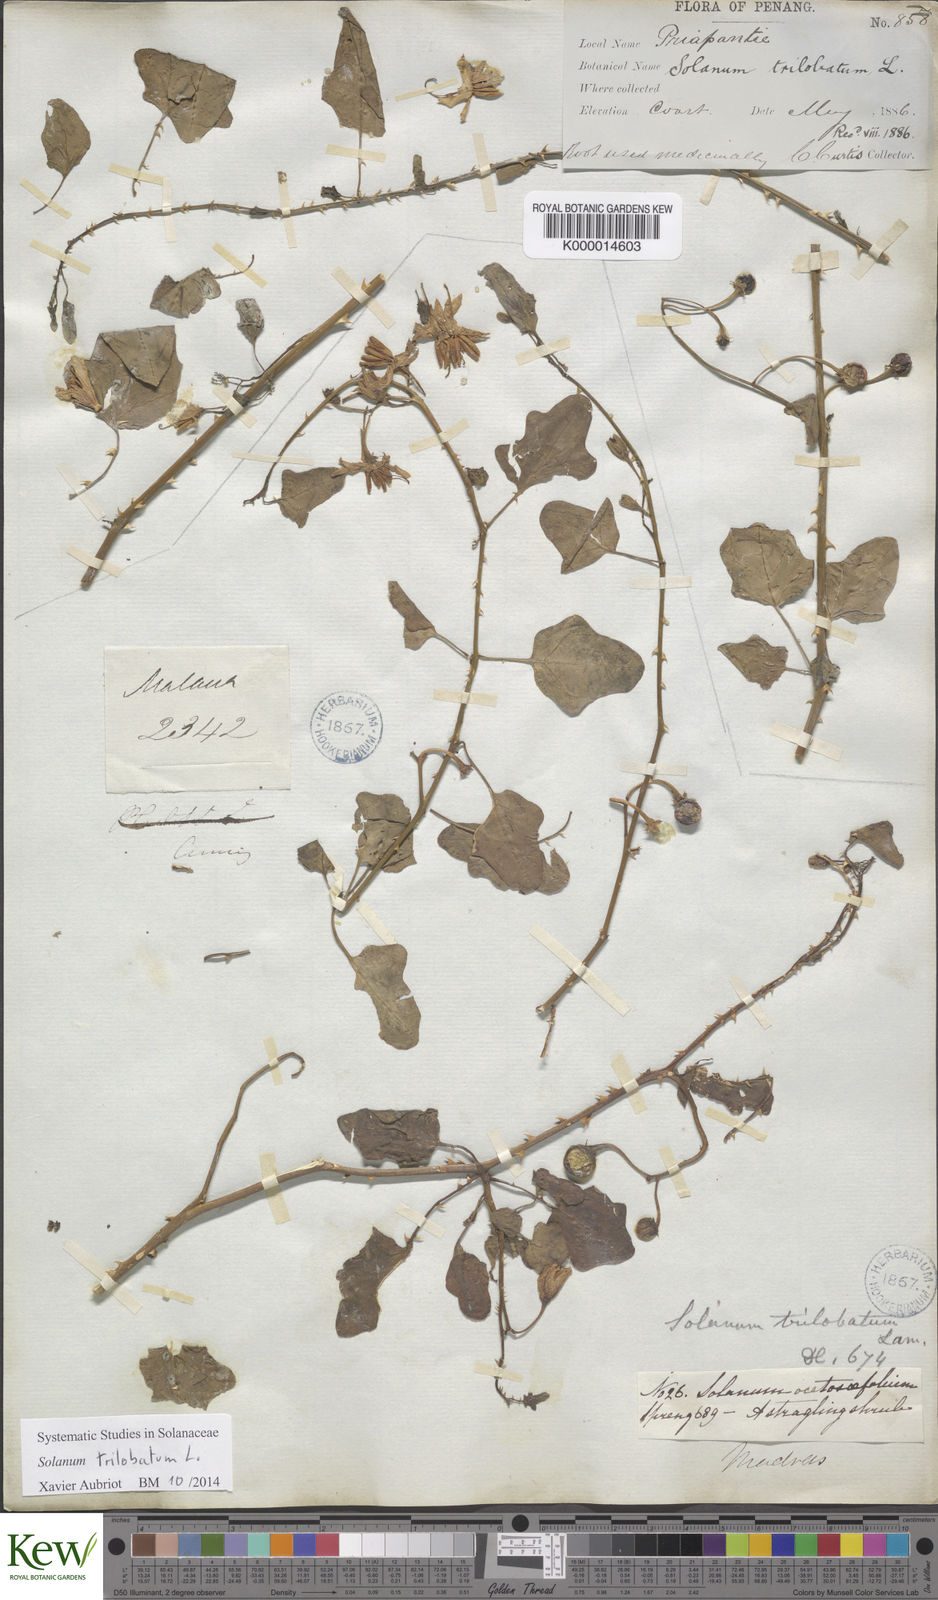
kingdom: Plantae
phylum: Tracheophyta
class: Magnoliopsida
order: Solanales
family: Solanaceae
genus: Solanum
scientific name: Solanum trilobatum
